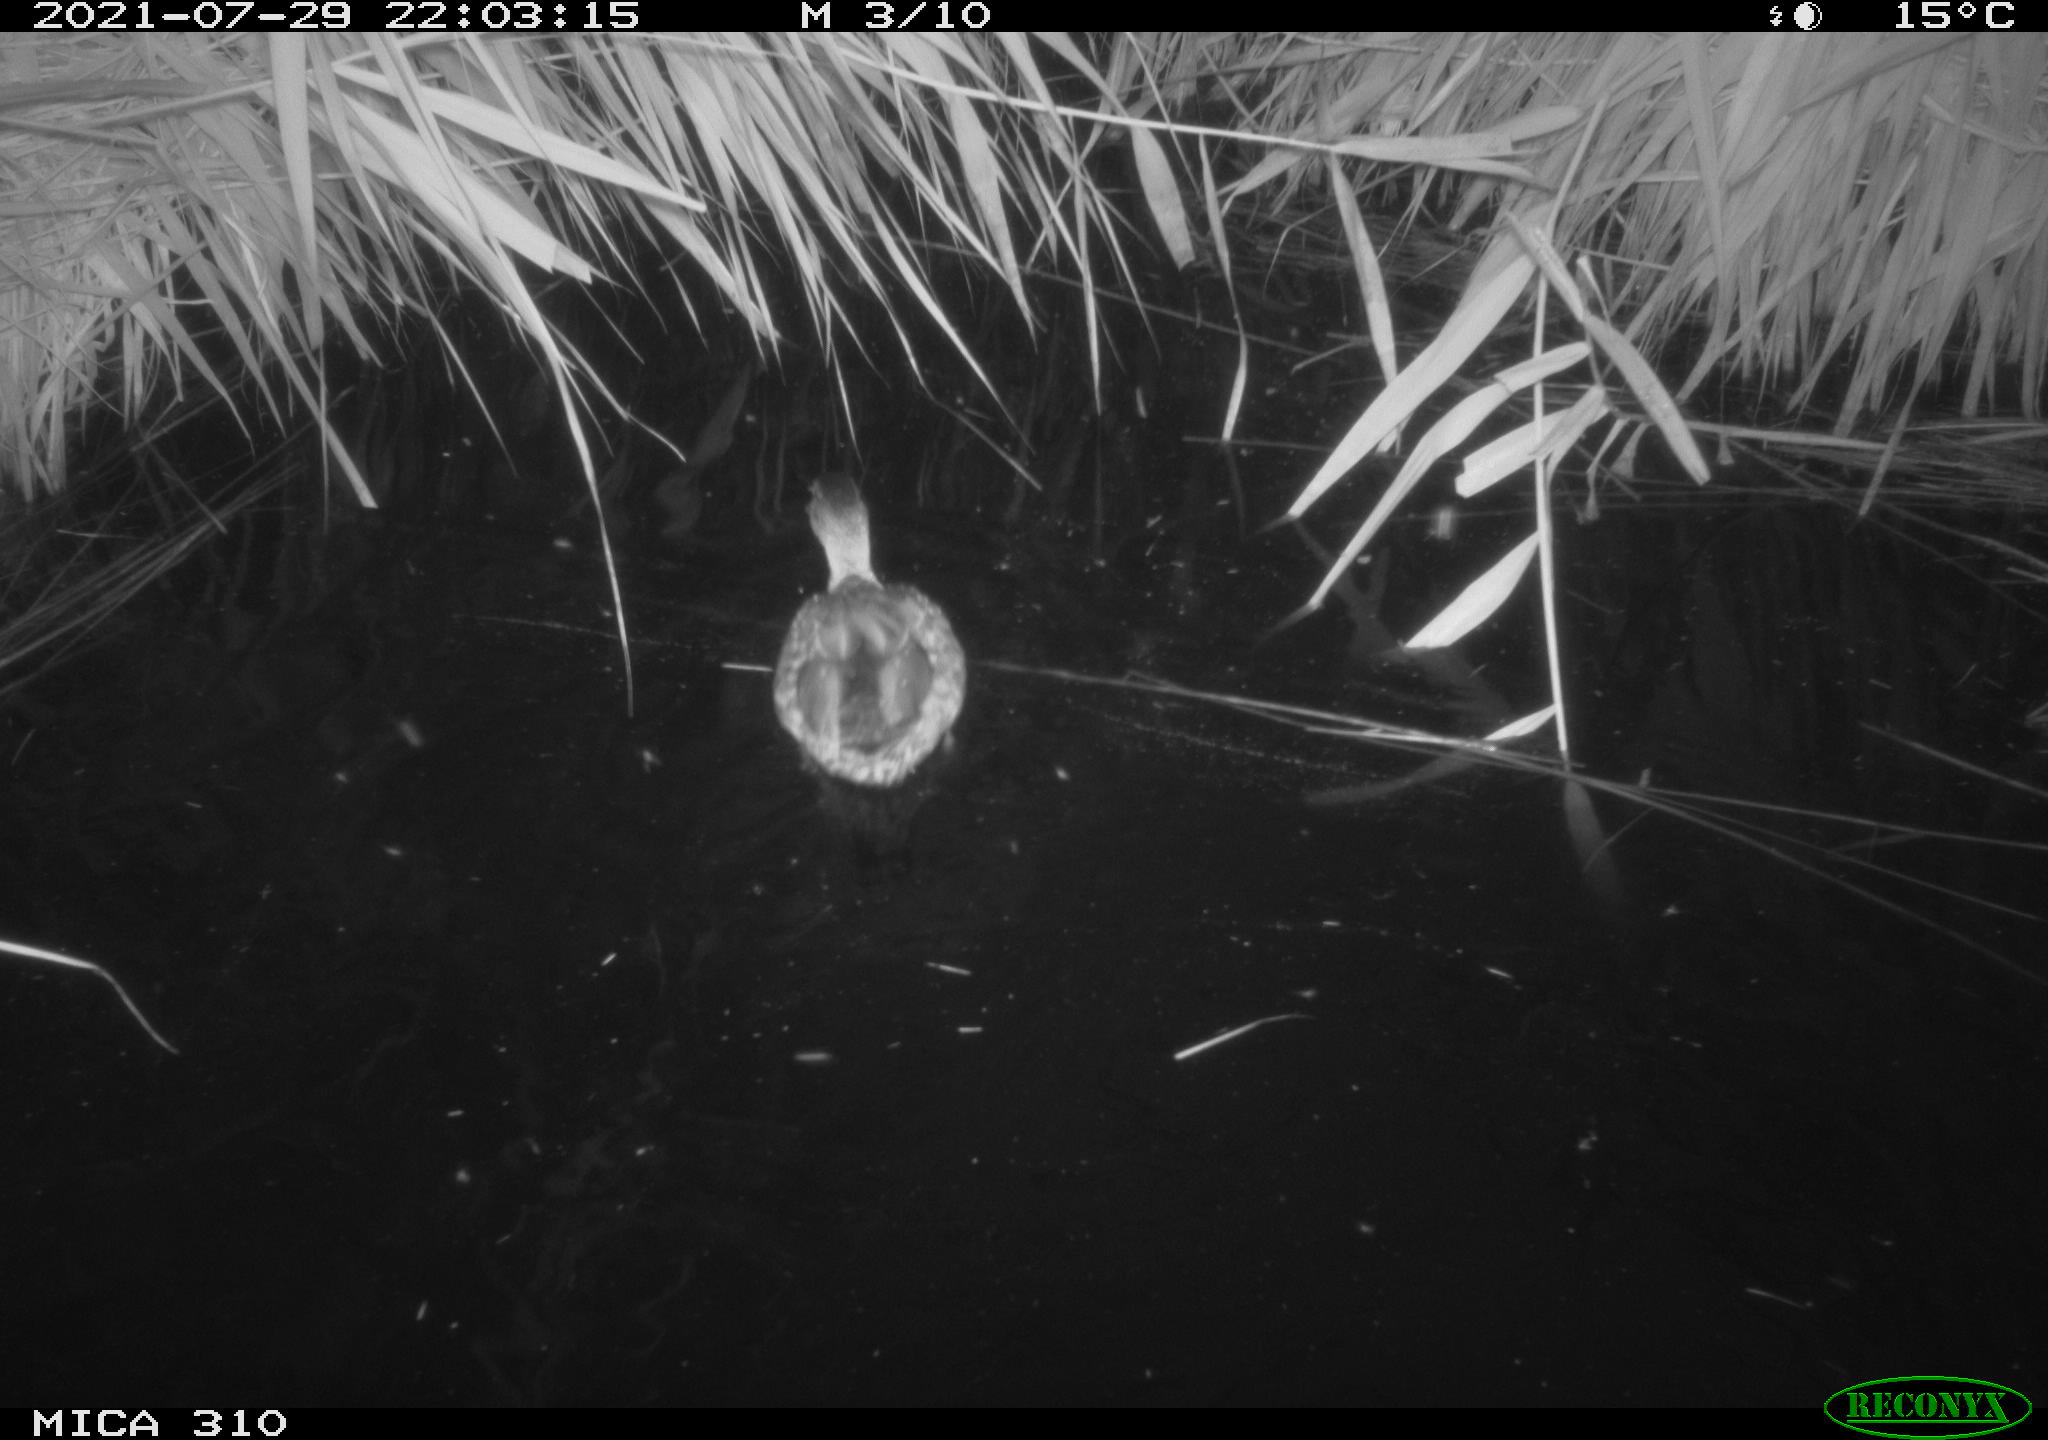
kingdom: Animalia
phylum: Chordata
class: Aves
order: Anseriformes
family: Anatidae
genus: Anas
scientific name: Anas platyrhynchos
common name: Mallard
